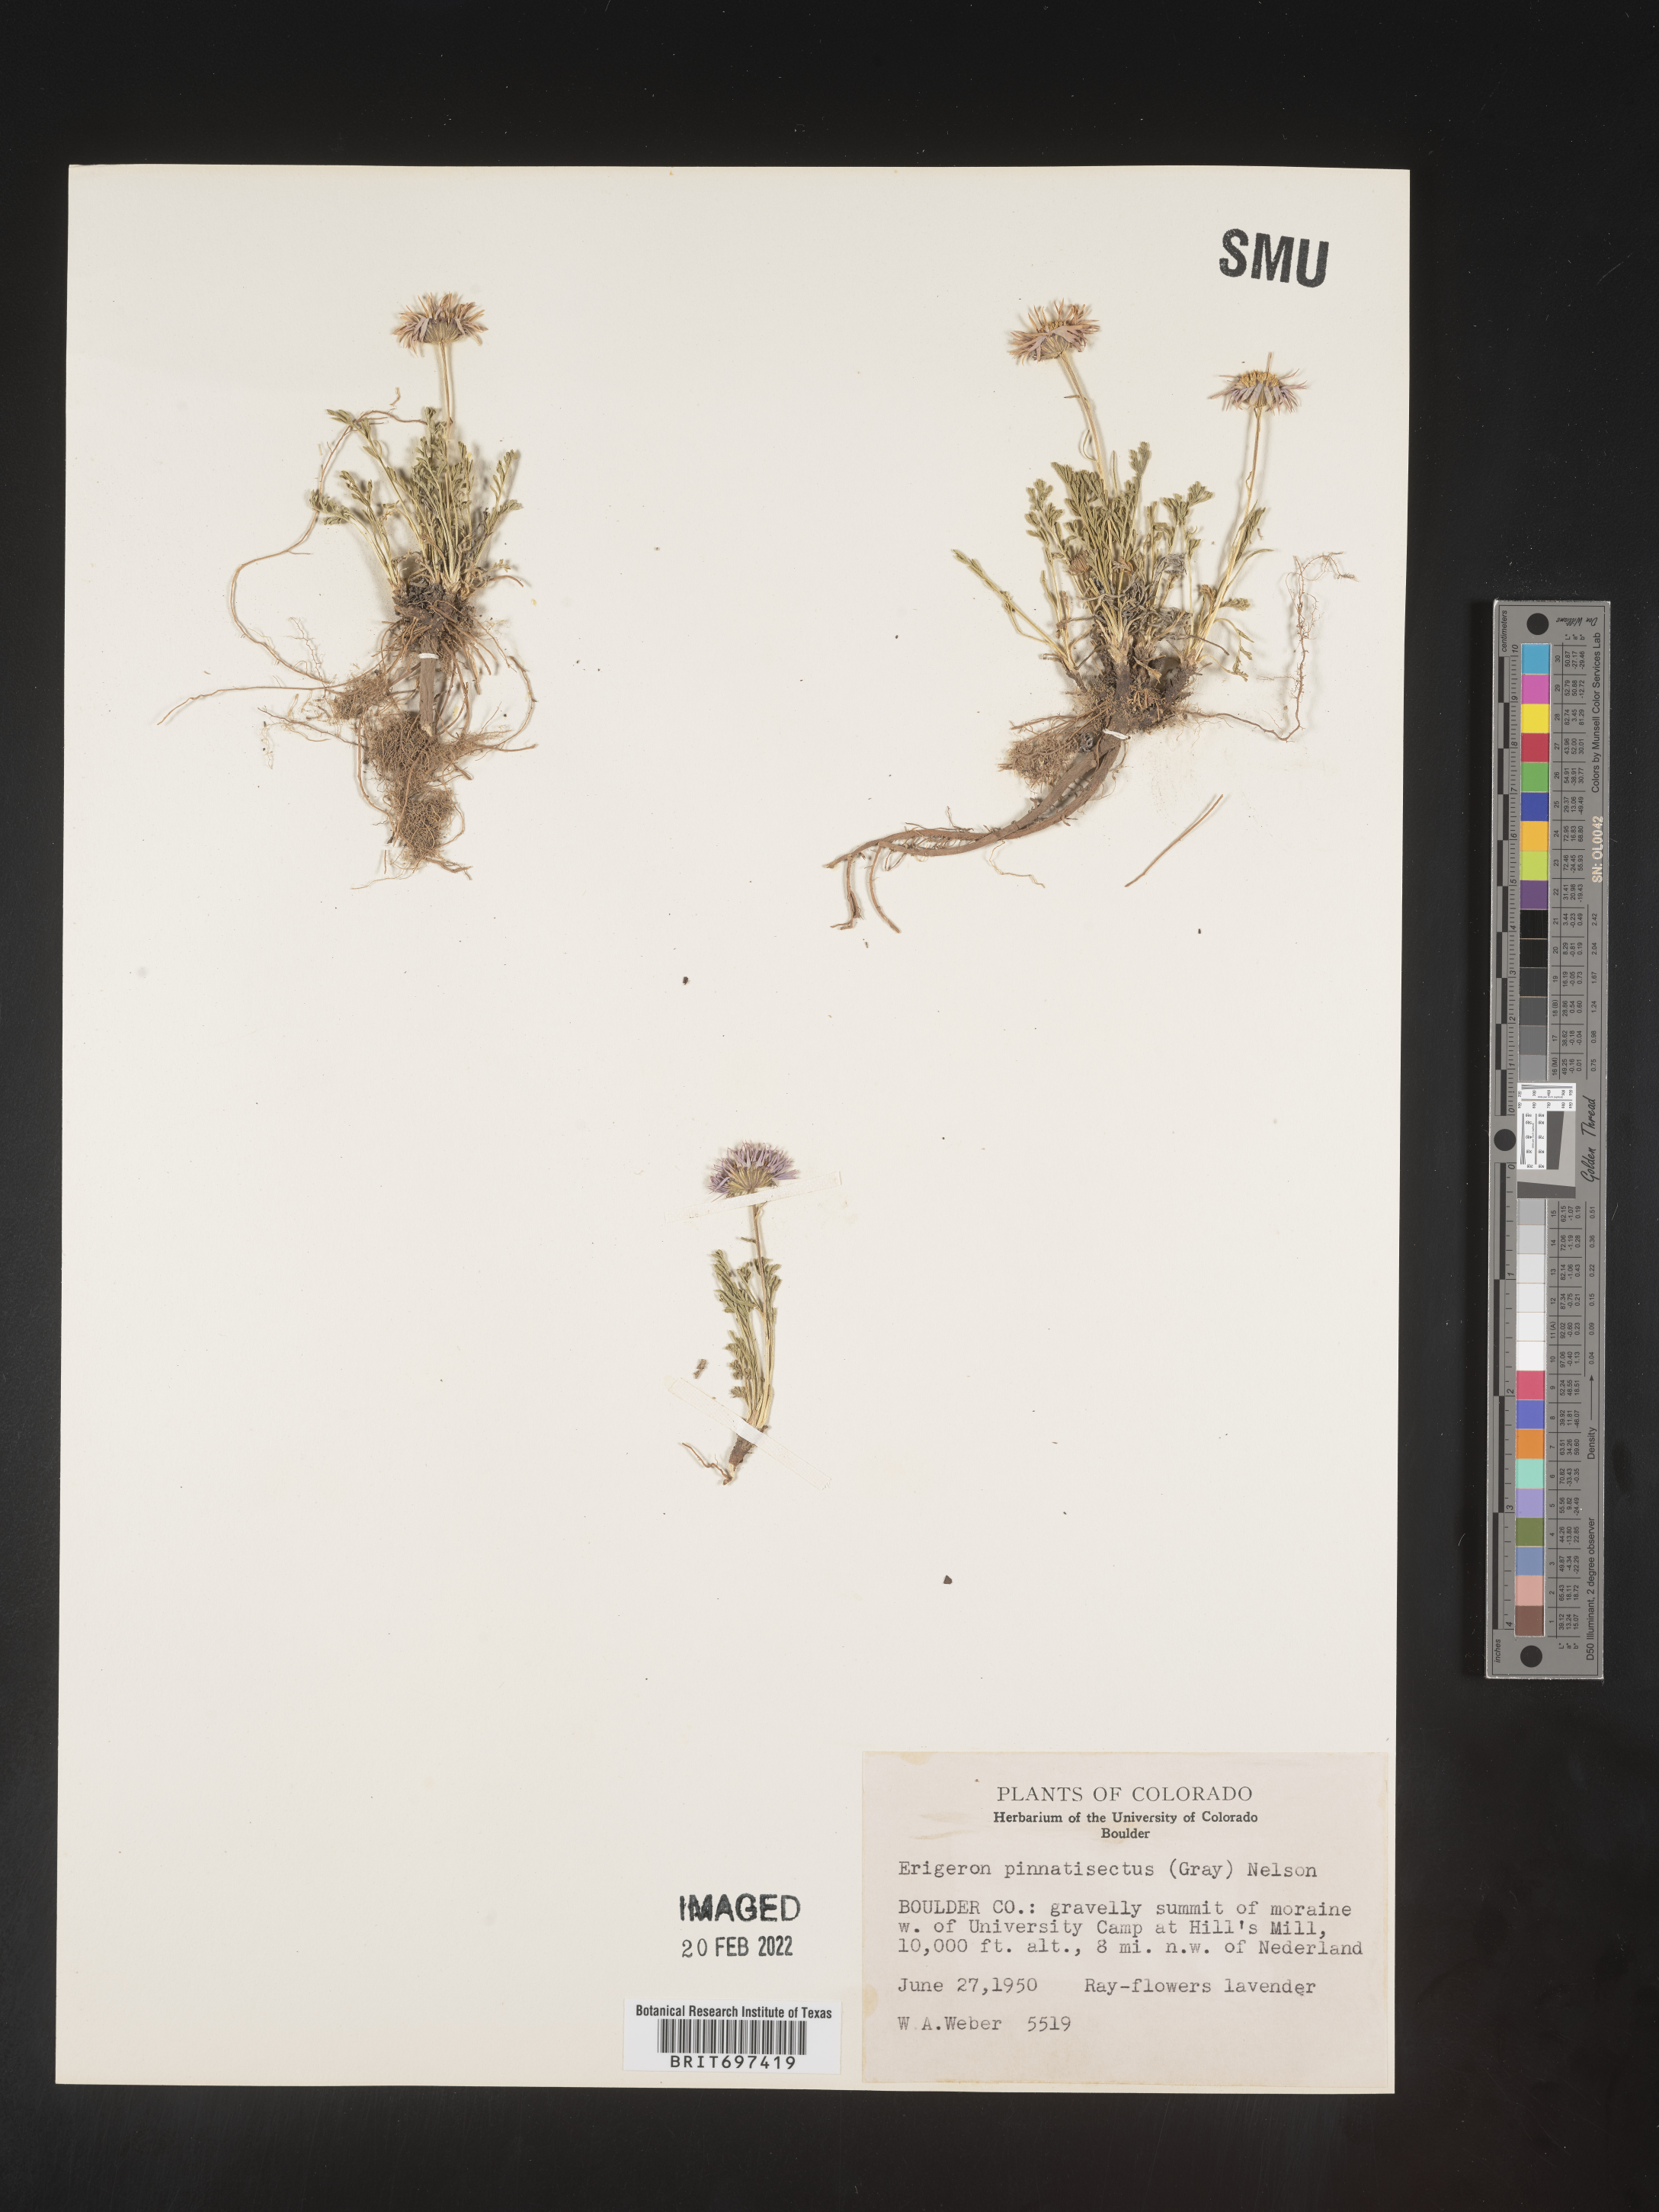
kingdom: Plantae
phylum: Tracheophyta
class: Magnoliopsida
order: Asterales
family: Asteraceae
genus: Erigeron
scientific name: Erigeron pinnatisectus
